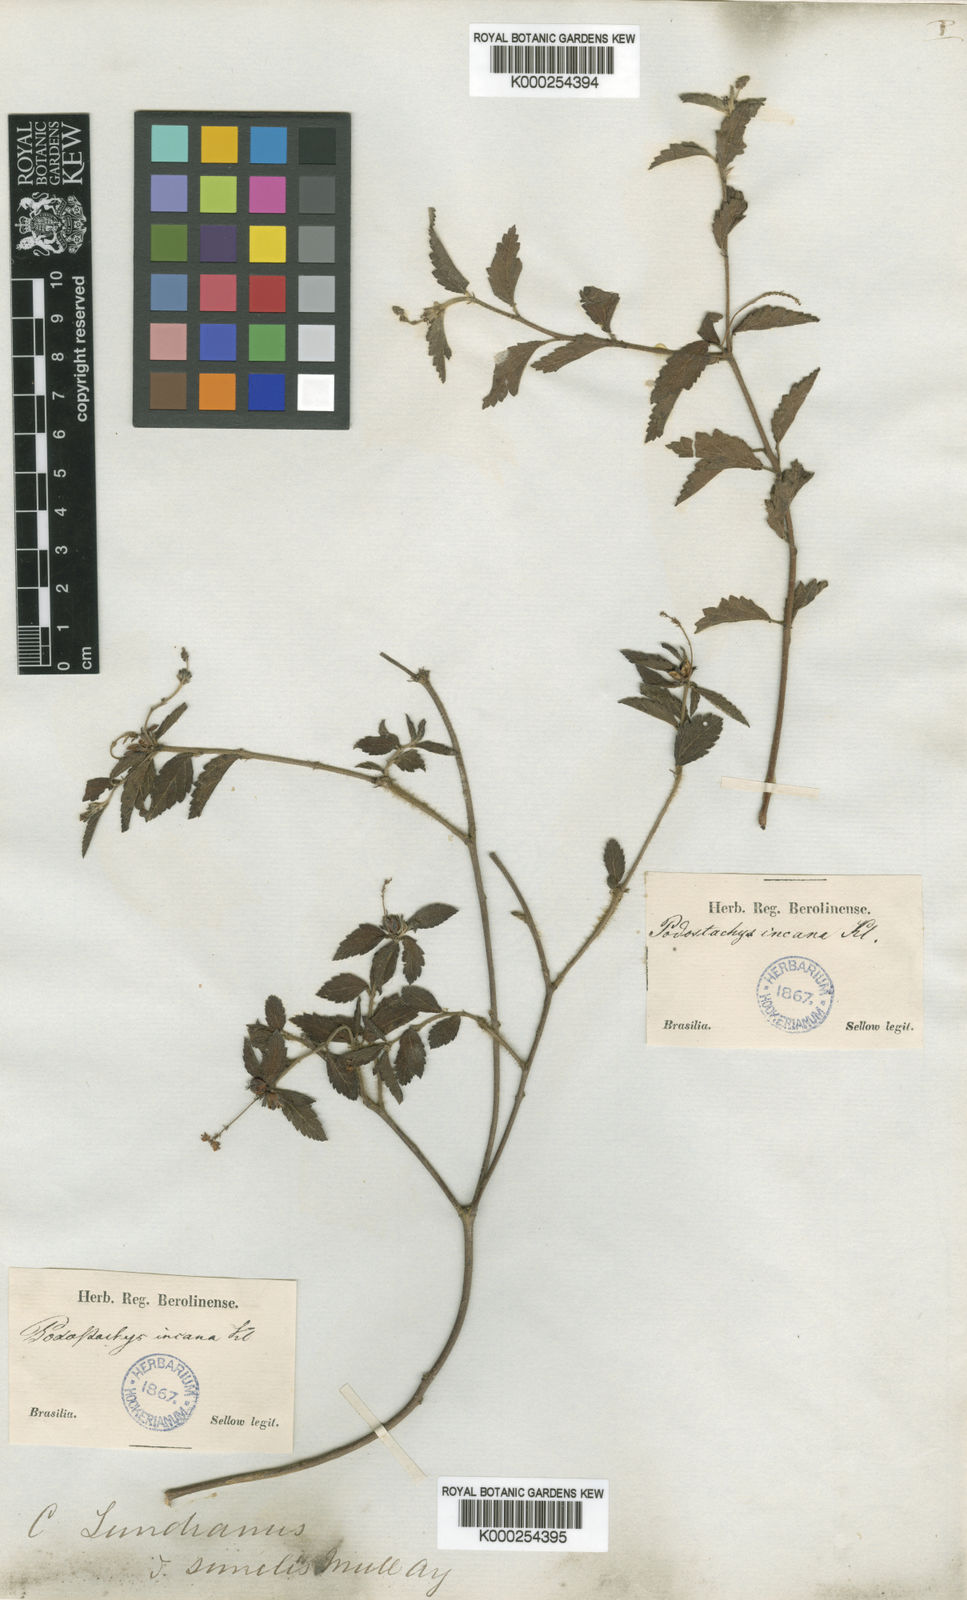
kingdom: Plantae
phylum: Tracheophyta
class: Magnoliopsida
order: Malpighiales
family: Euphorbiaceae
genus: Croton
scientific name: Croton
